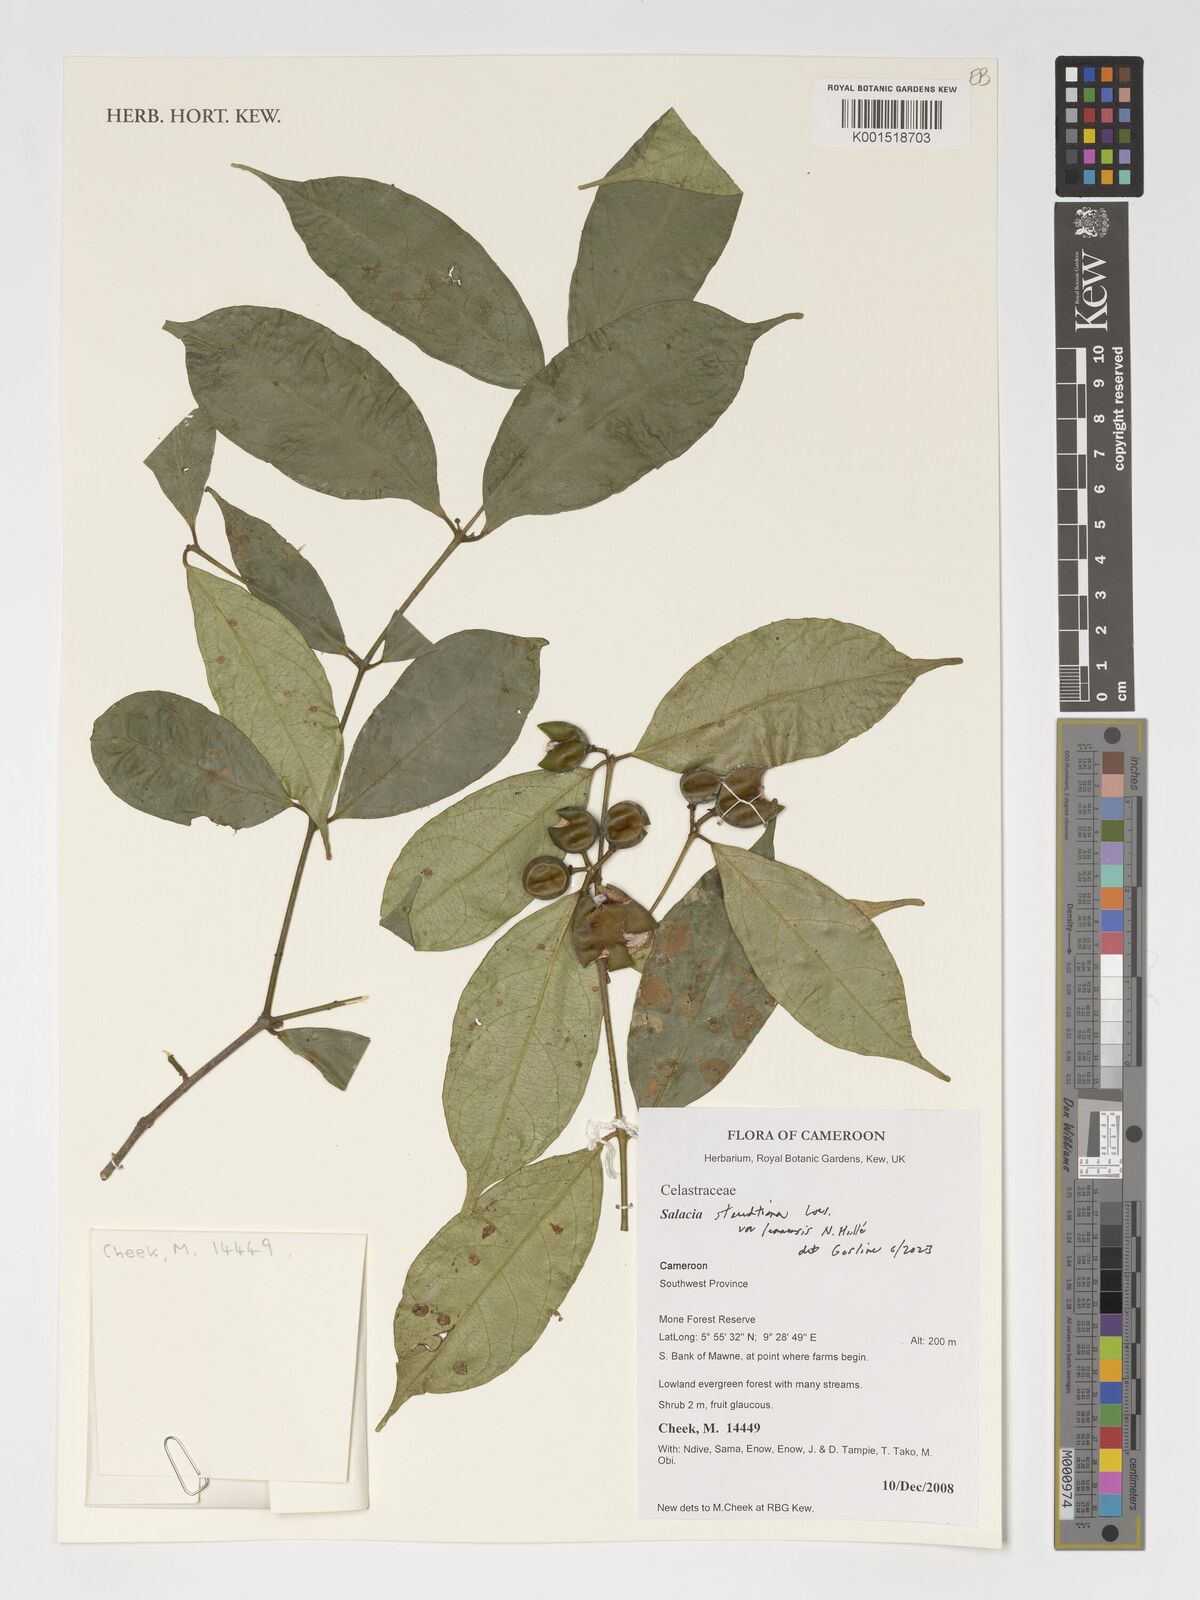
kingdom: Plantae
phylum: Tracheophyta
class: Magnoliopsida
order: Celastrales
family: Celastraceae
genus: Salacia
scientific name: Salacia staudtiana
